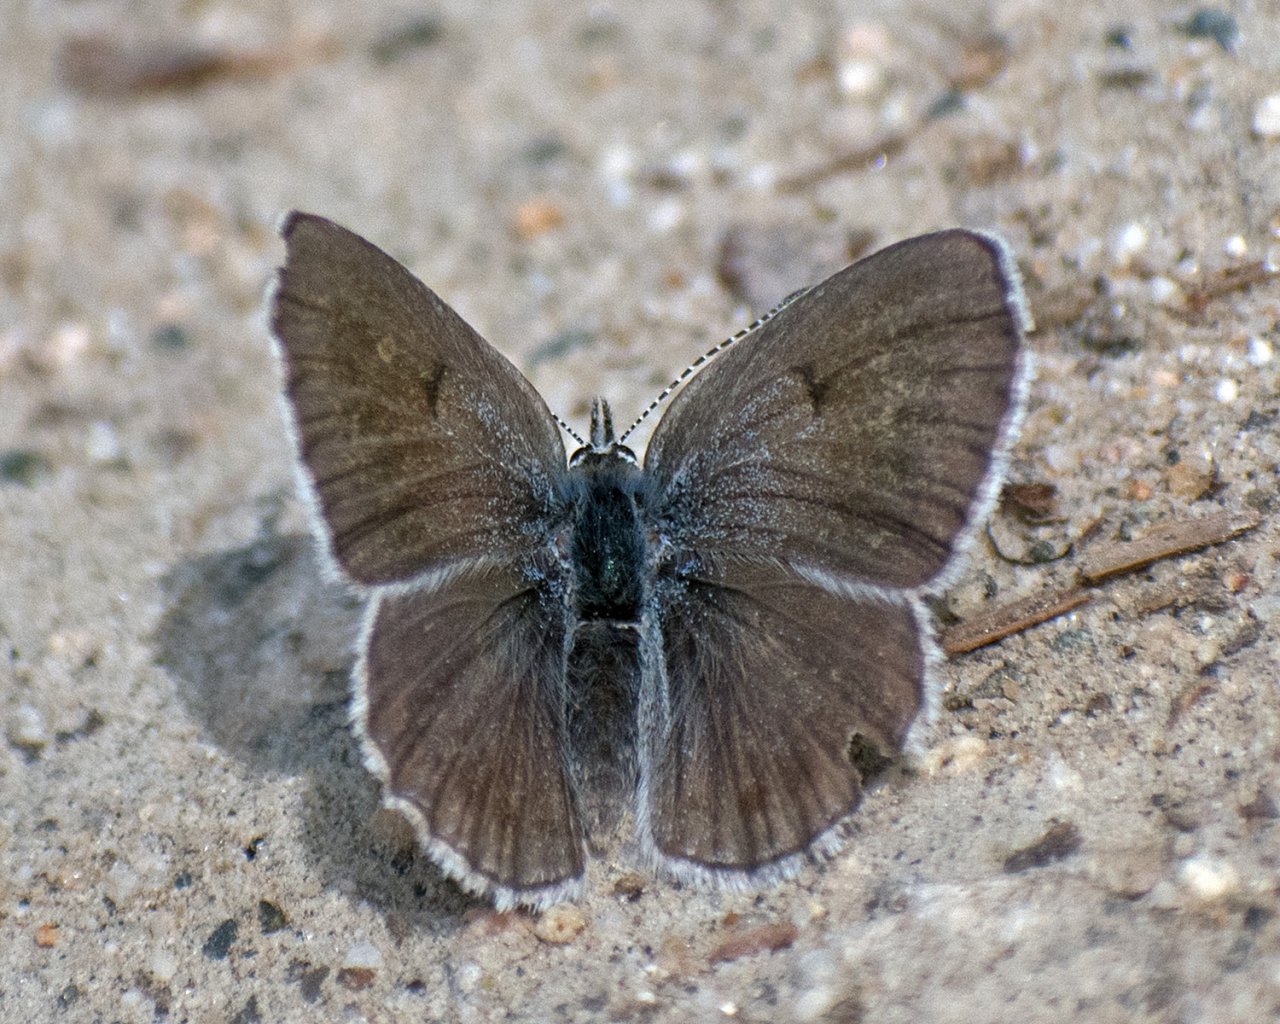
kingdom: Animalia
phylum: Arthropoda
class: Insecta
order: Lepidoptera
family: Lycaenidae
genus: Icaricia
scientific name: Icaricia icarioides
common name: Boisduval's Blue
